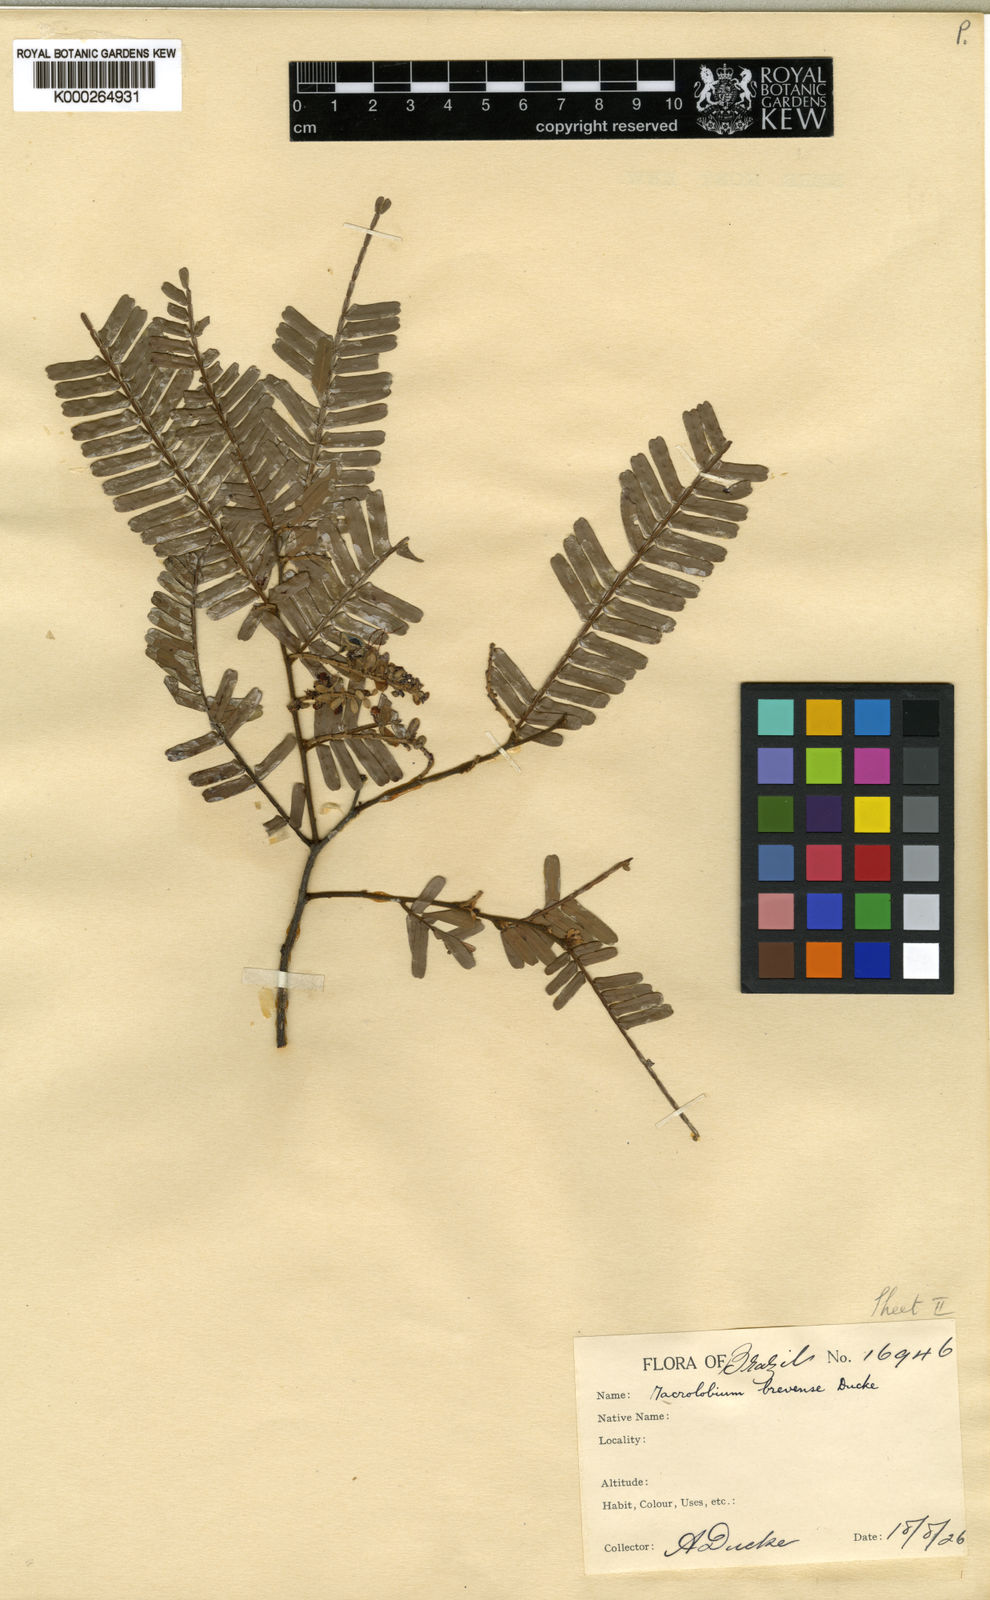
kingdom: Plantae
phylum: Tracheophyta
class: Magnoliopsida
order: Fabales
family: Fabaceae
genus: Macrolobium
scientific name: Macrolobium brevense
